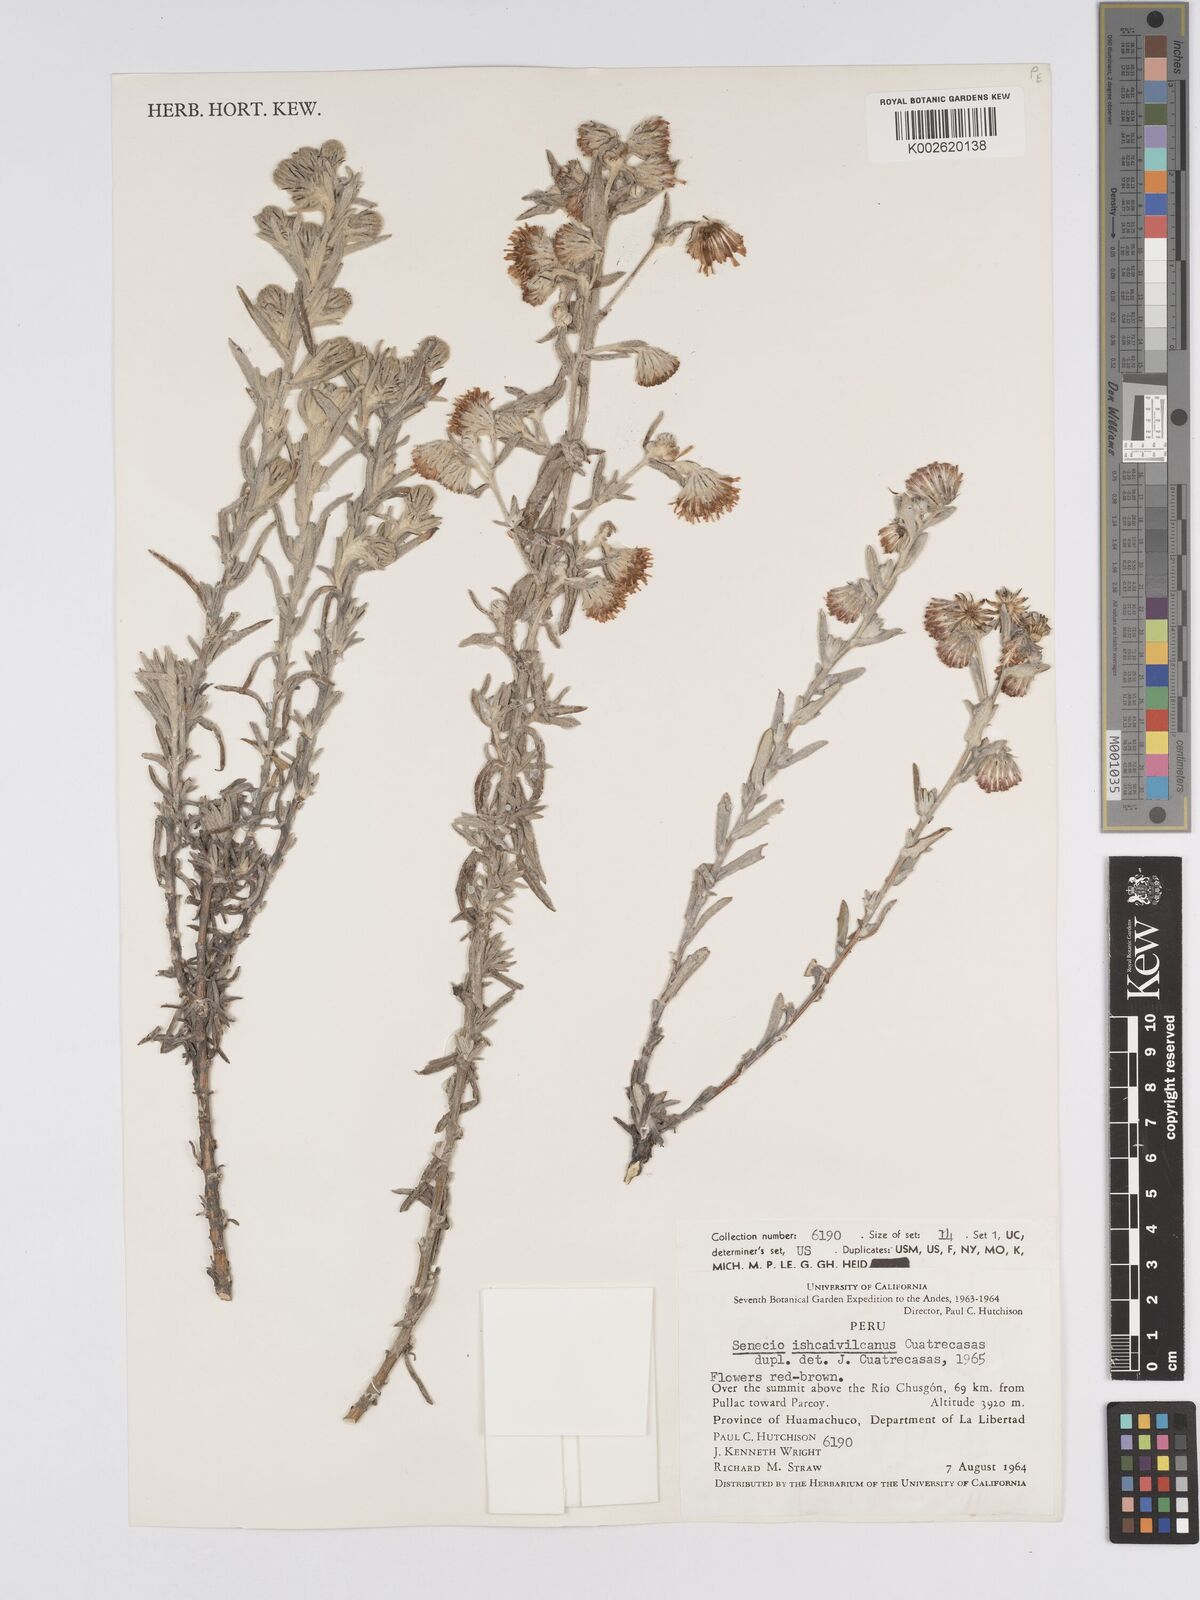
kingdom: Plantae
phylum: Tracheophyta
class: Magnoliopsida
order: Asterales
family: Asteraceae
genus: Senecio
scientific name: Senecio ishcaivilcanus
